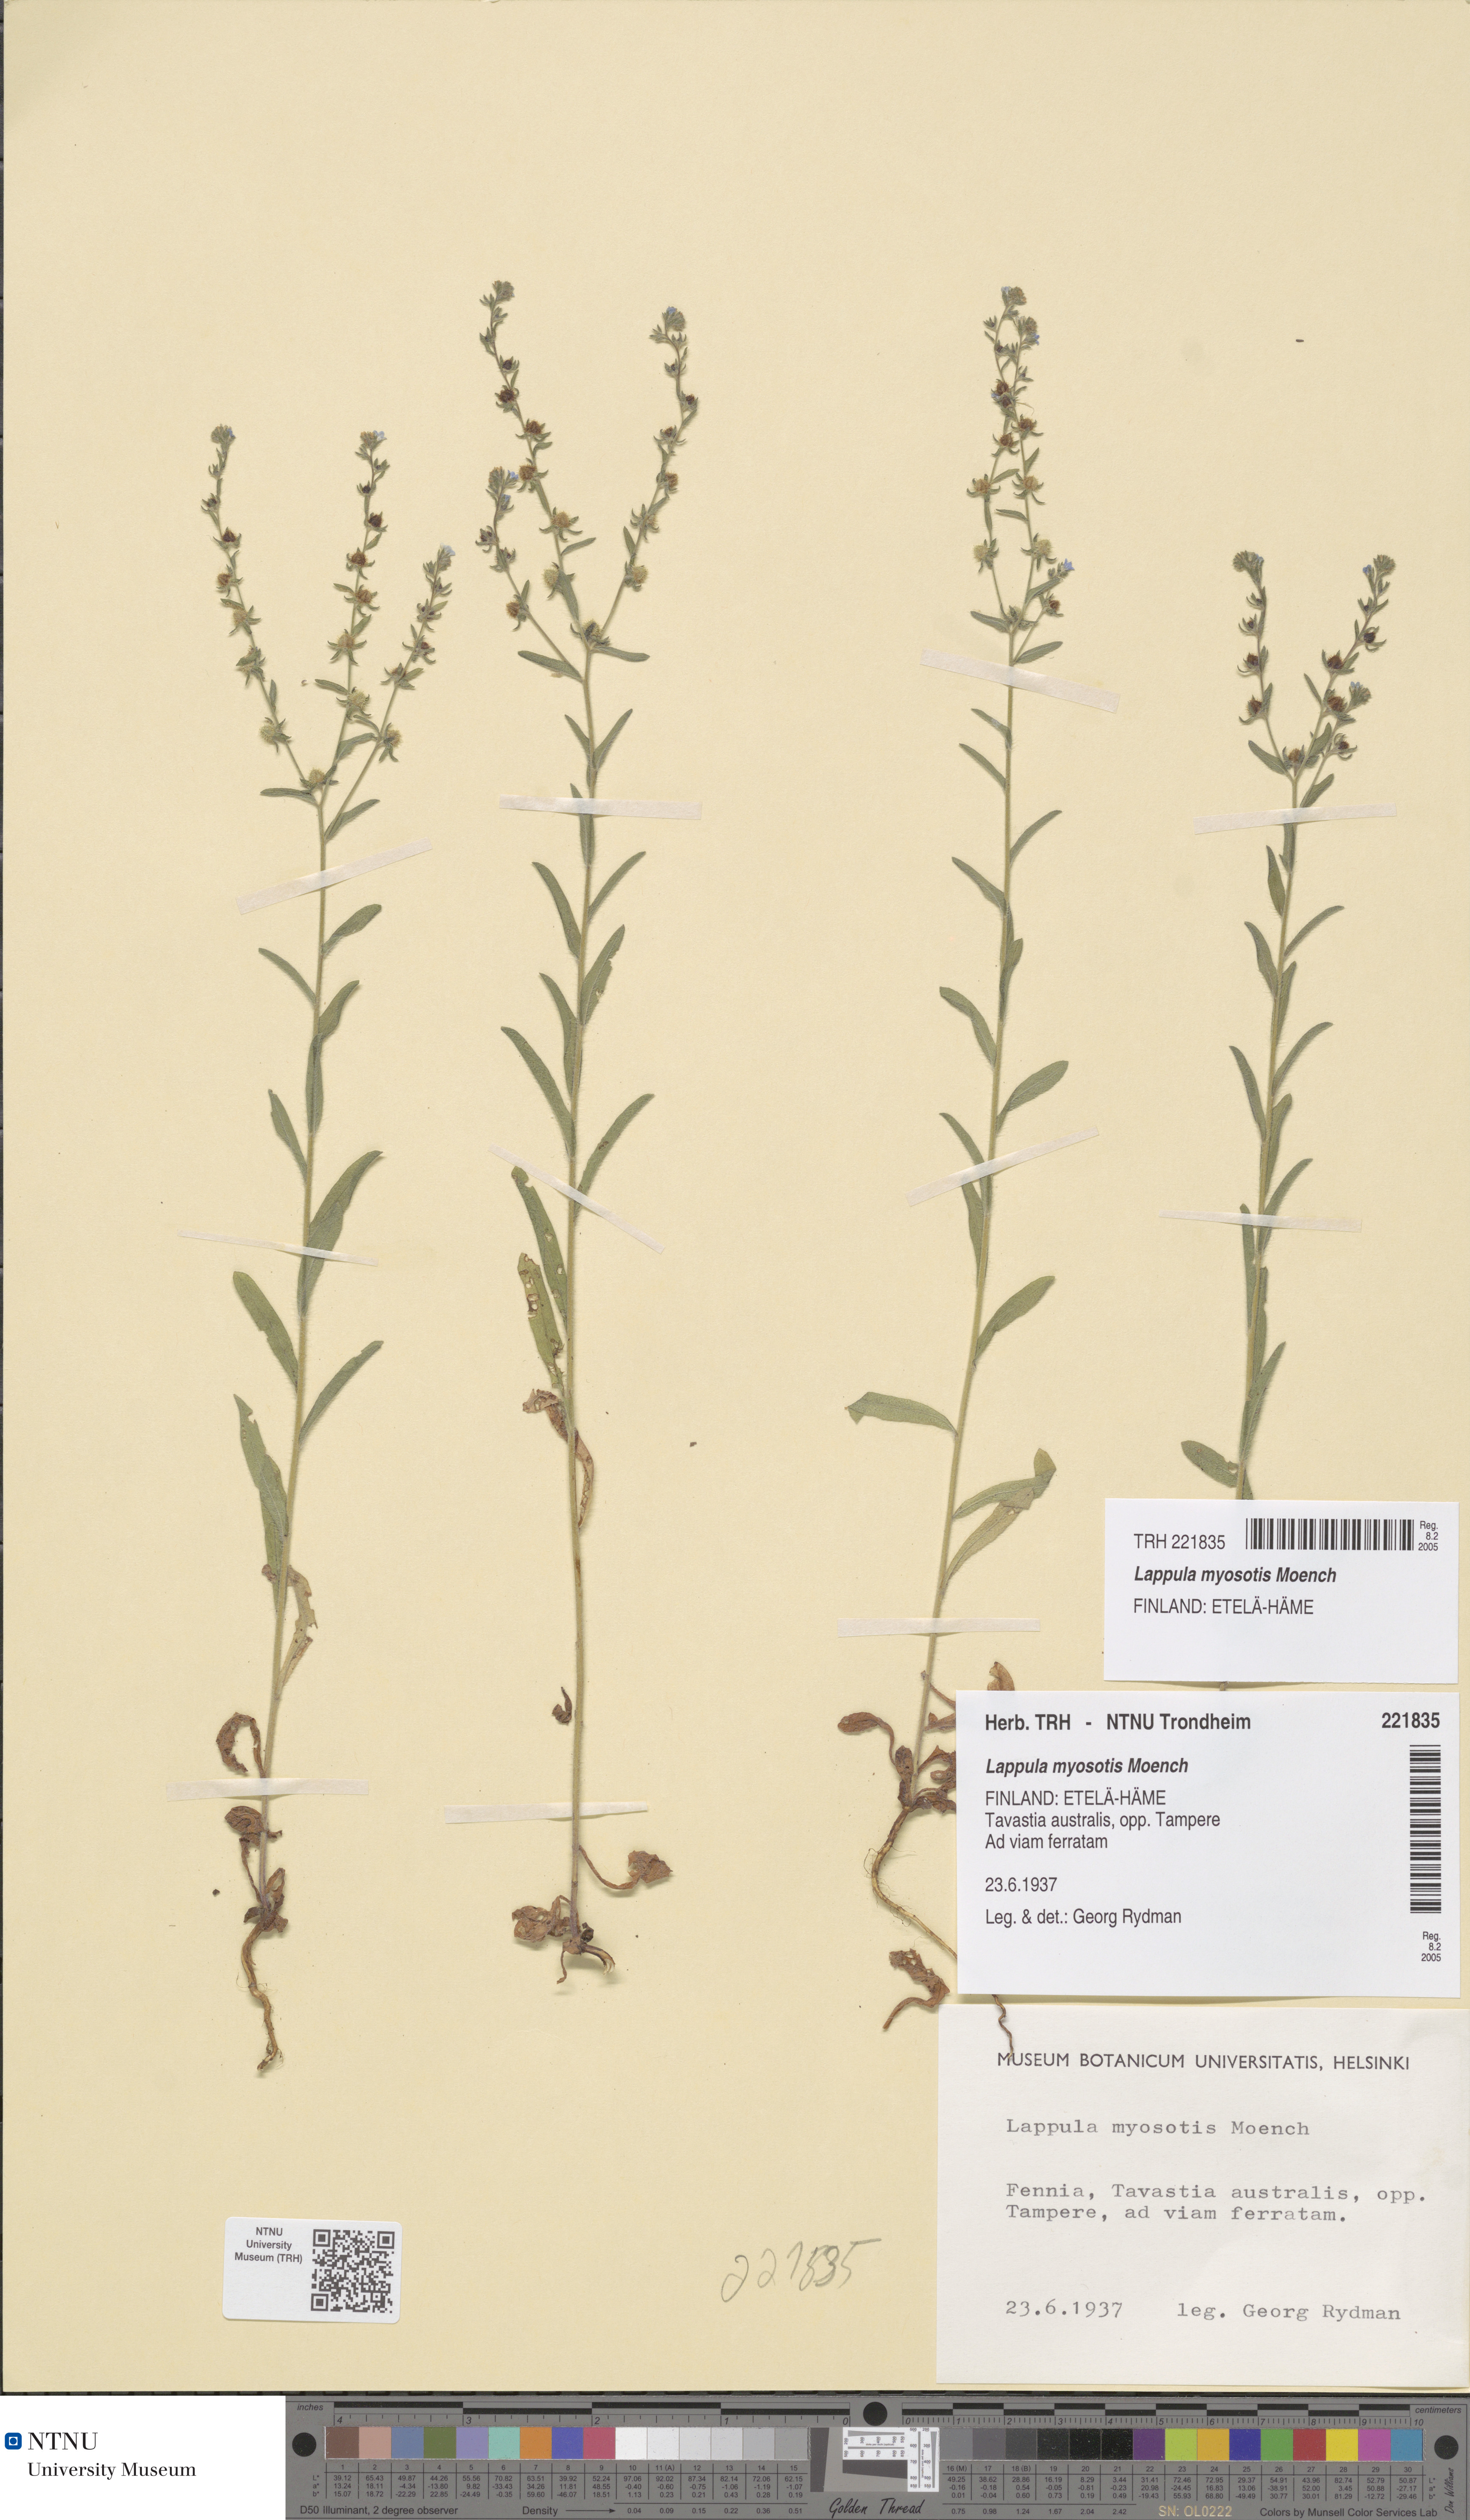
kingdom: Plantae
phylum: Tracheophyta
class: Magnoliopsida
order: Boraginales
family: Boraginaceae
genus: Lappula
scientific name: Lappula squarrosa
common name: European stickseed
